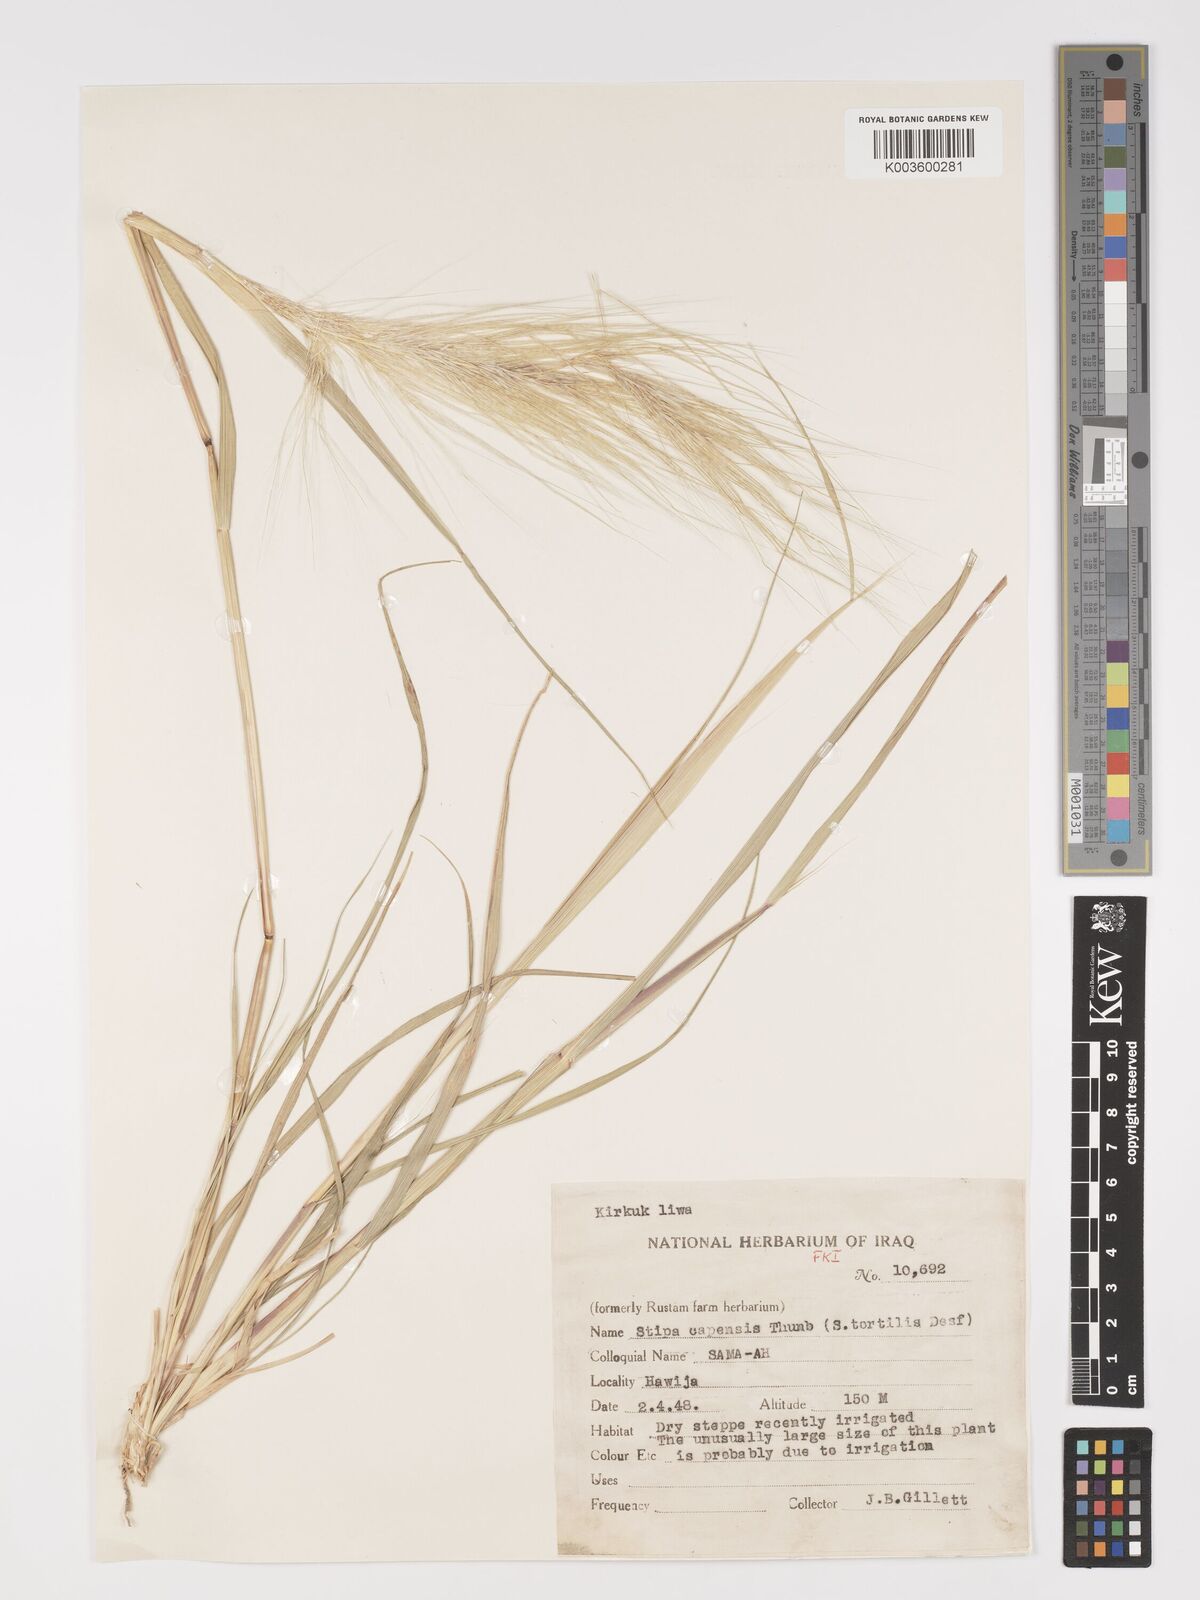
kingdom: Plantae
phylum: Tracheophyta
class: Liliopsida
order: Poales
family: Poaceae
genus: Stipellula
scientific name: Stipellula capensis
